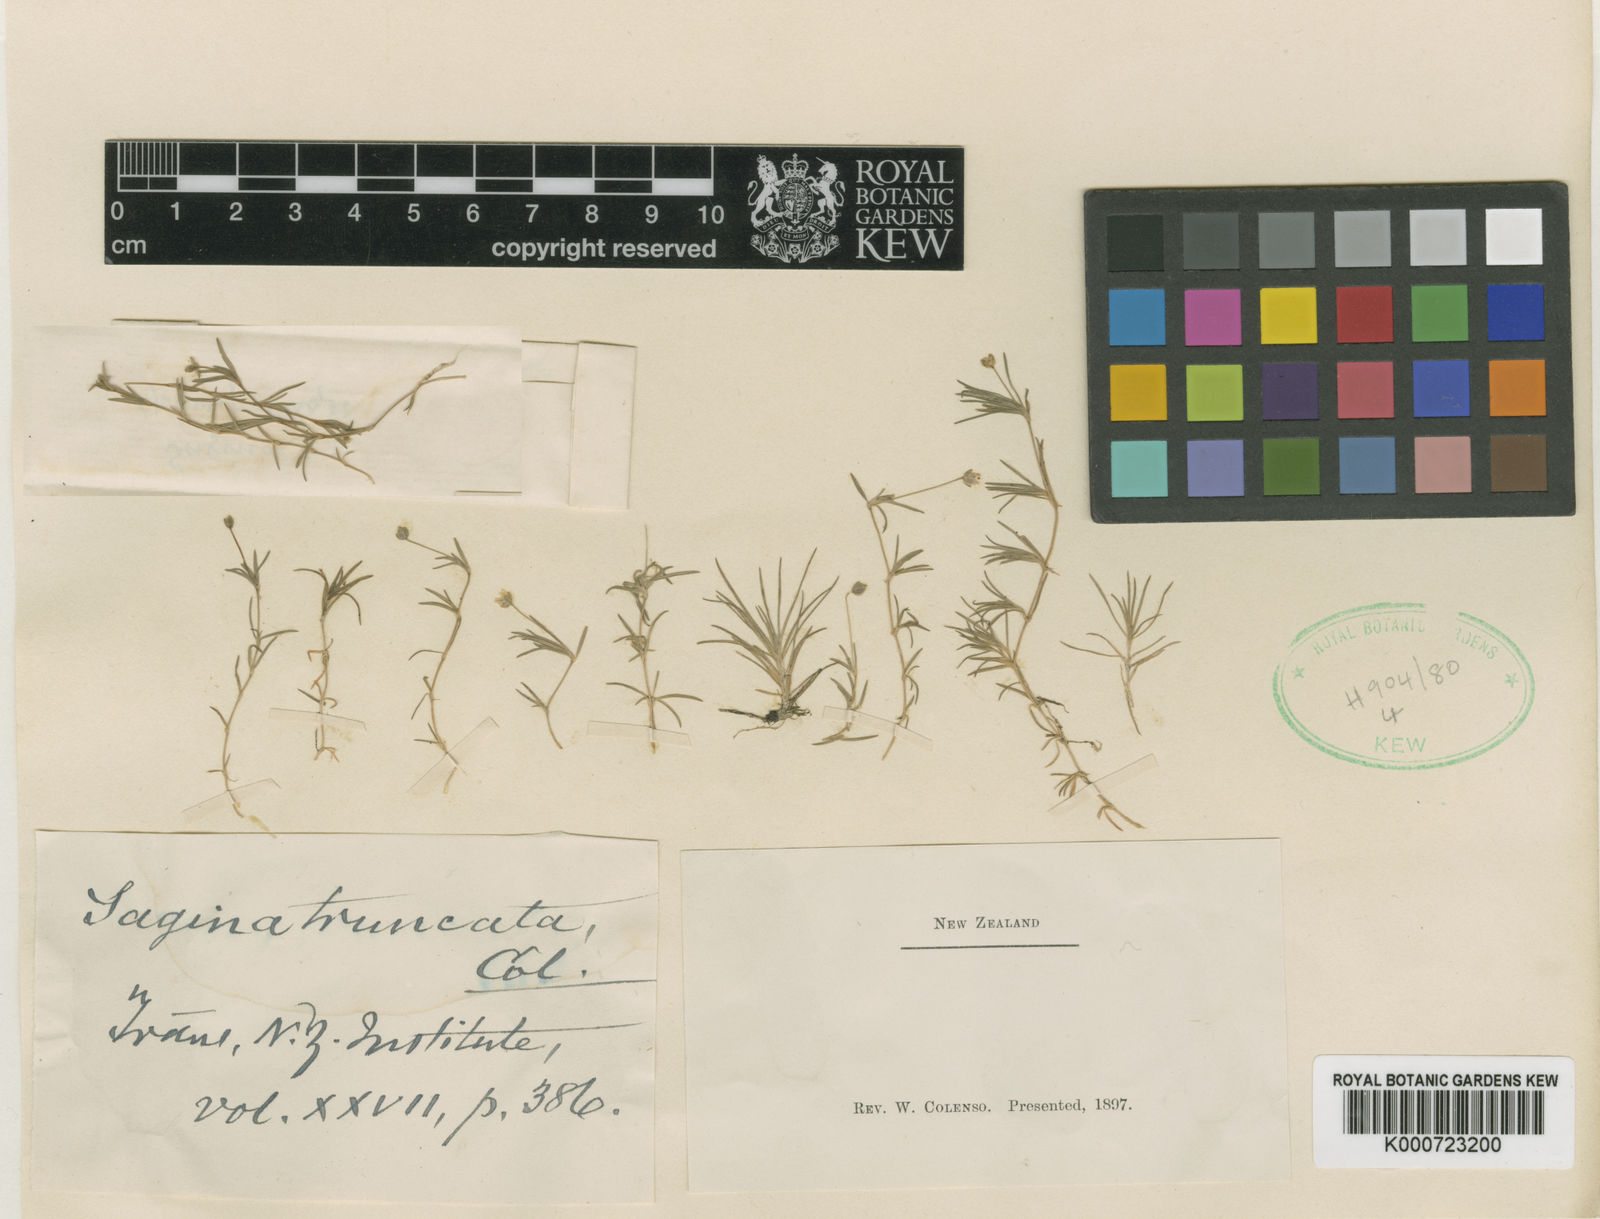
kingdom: Plantae
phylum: Tracheophyta
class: Magnoliopsida
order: Caryophyllales
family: Caryophyllaceae
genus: Sagina
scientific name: Sagina procumbens
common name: Procumbent pearlwort
